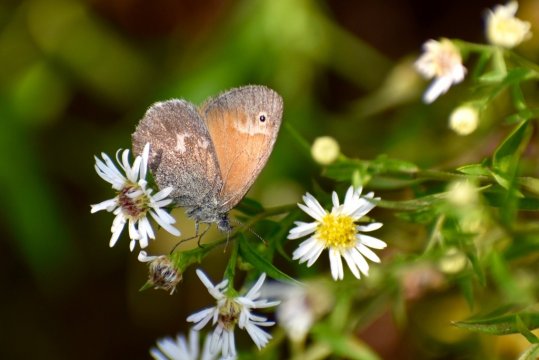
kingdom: Animalia
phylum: Arthropoda
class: Insecta
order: Lepidoptera
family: Nymphalidae
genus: Coenonympha
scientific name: Coenonympha california
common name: California Ringlet
